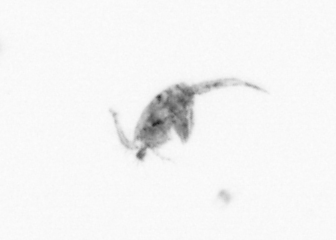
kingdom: Animalia
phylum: Arthropoda
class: Copepoda
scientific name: Copepoda
